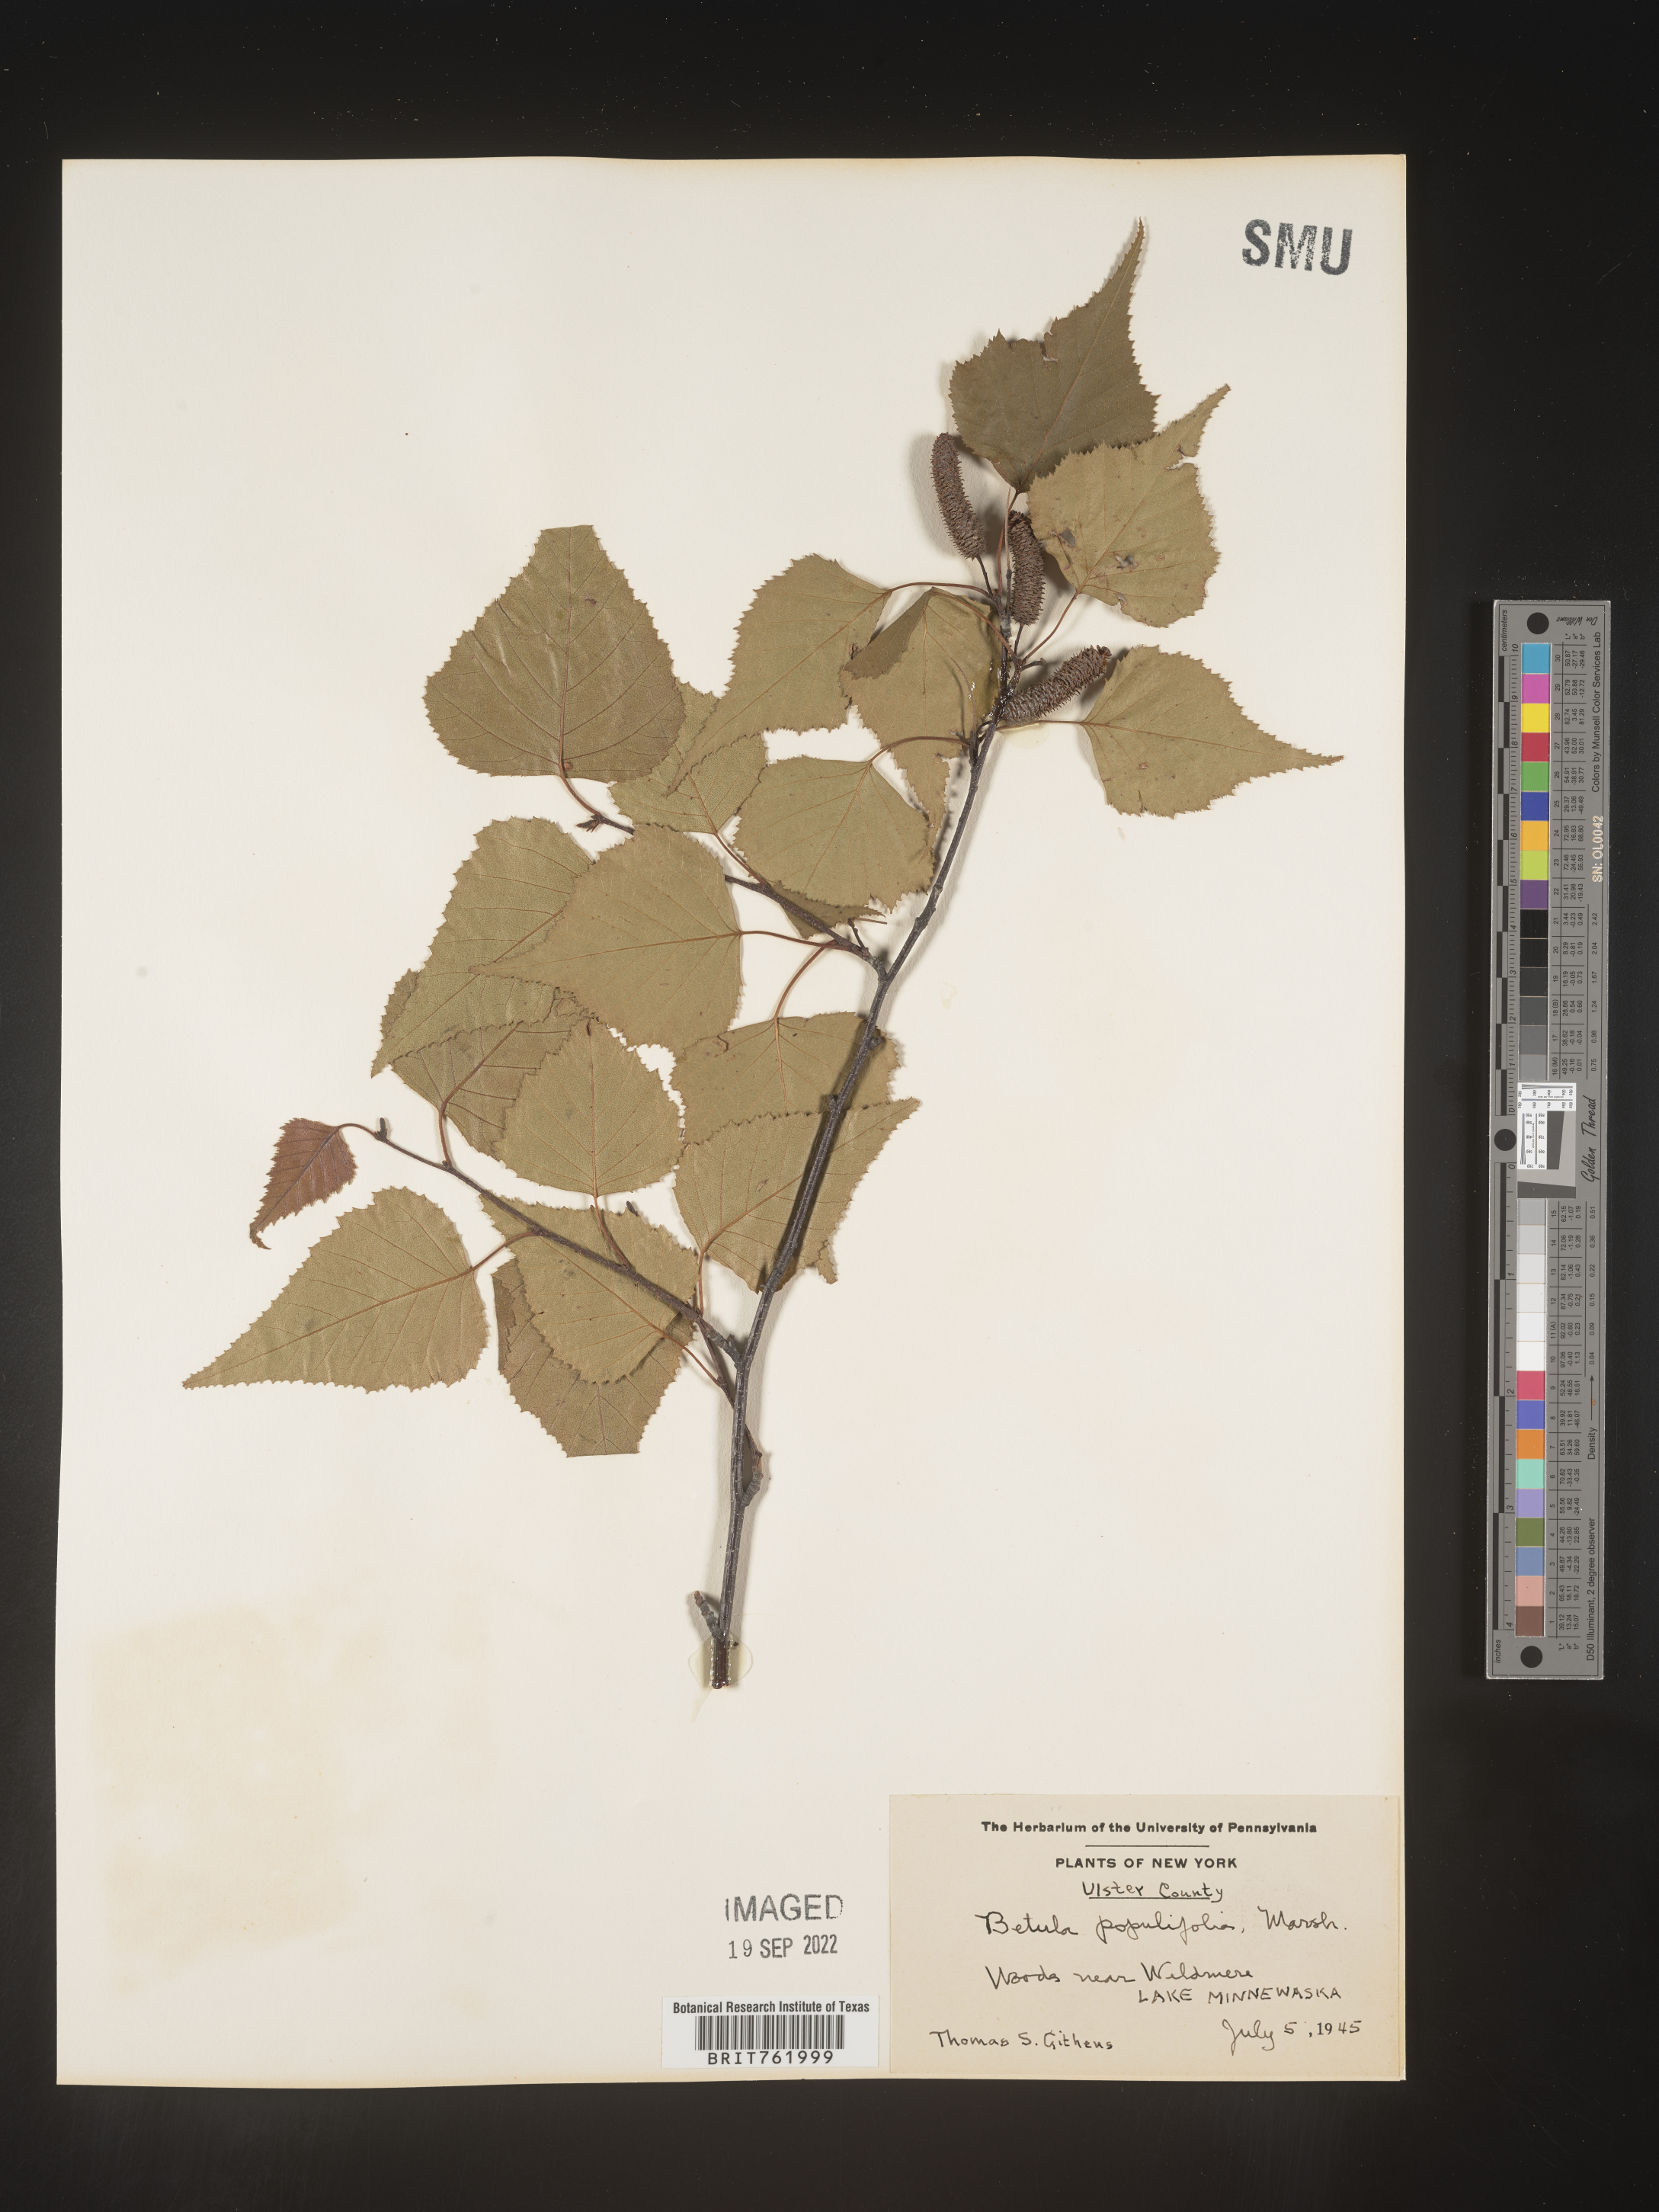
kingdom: Plantae
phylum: Tracheophyta
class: Magnoliopsida
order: Fagales
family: Betulaceae
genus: Betula
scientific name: Betula populifolia
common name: Fire birch
